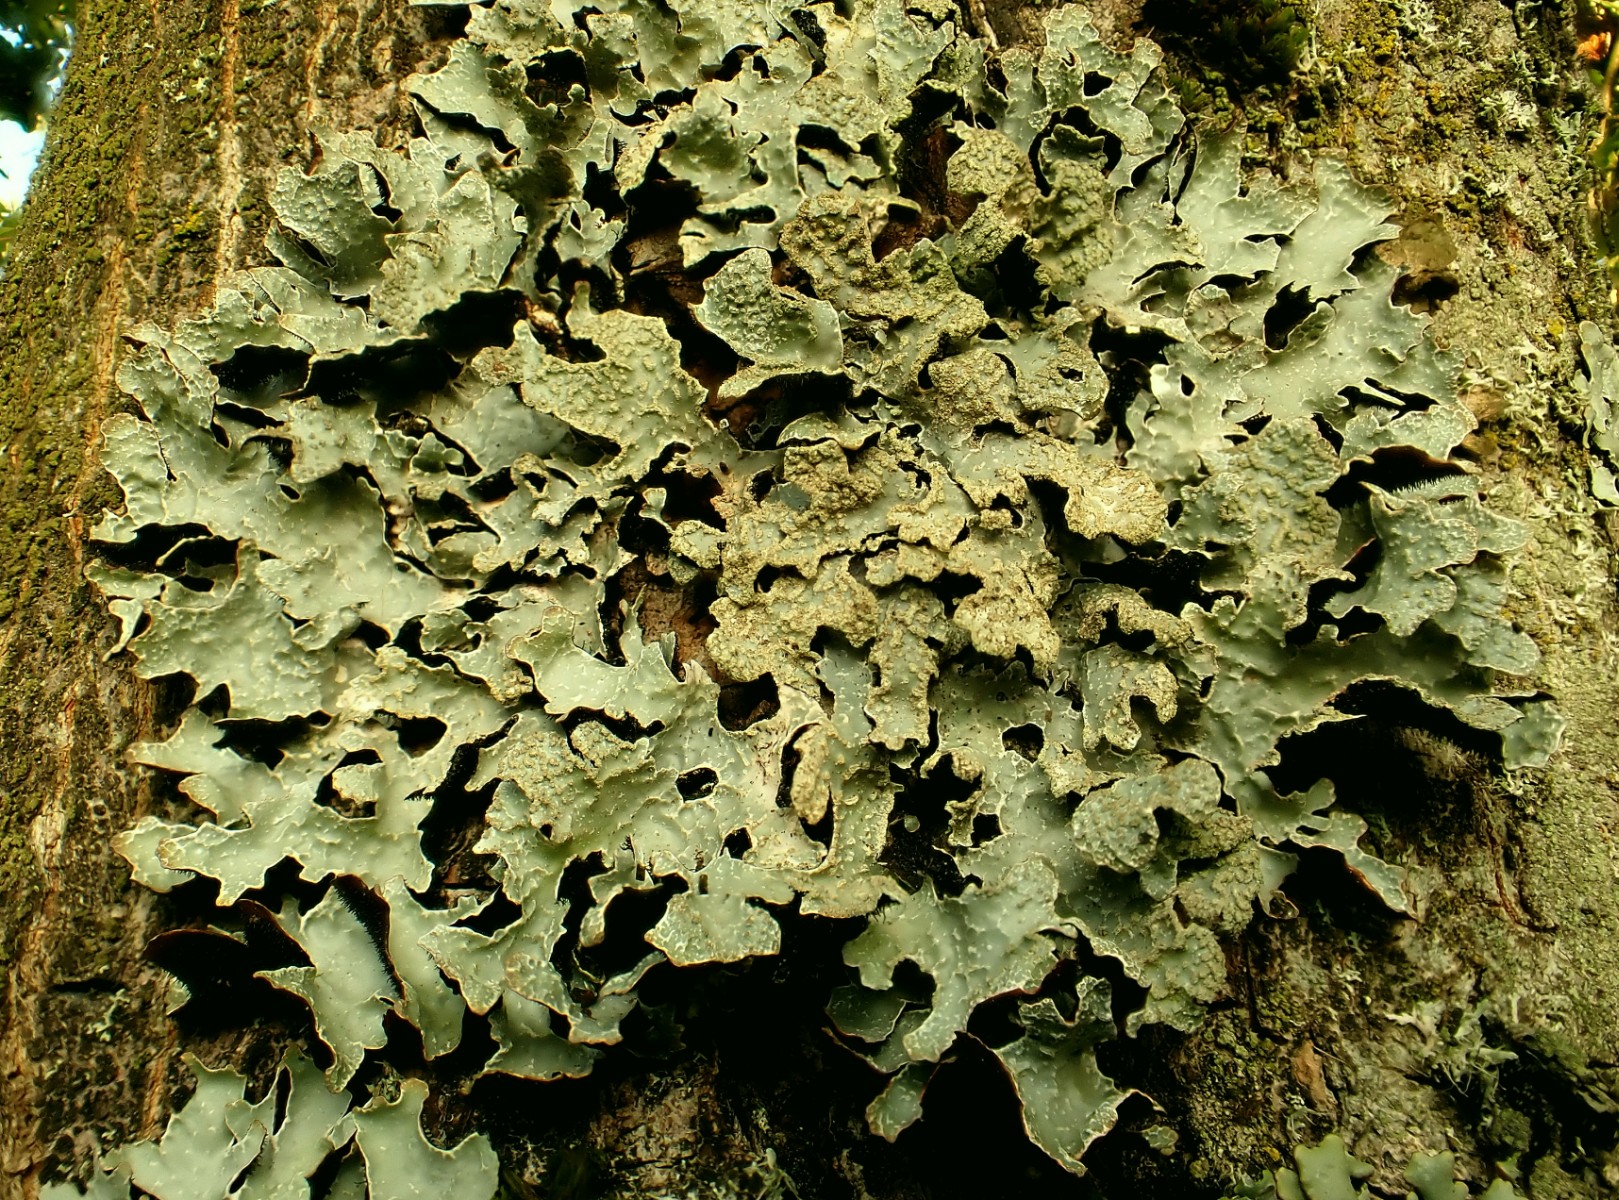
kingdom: Fungi
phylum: Ascomycota
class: Lecanoromycetes
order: Lecanorales
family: Parmeliaceae
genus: Parmelia
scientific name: Parmelia sulcata
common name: rynket skållav
